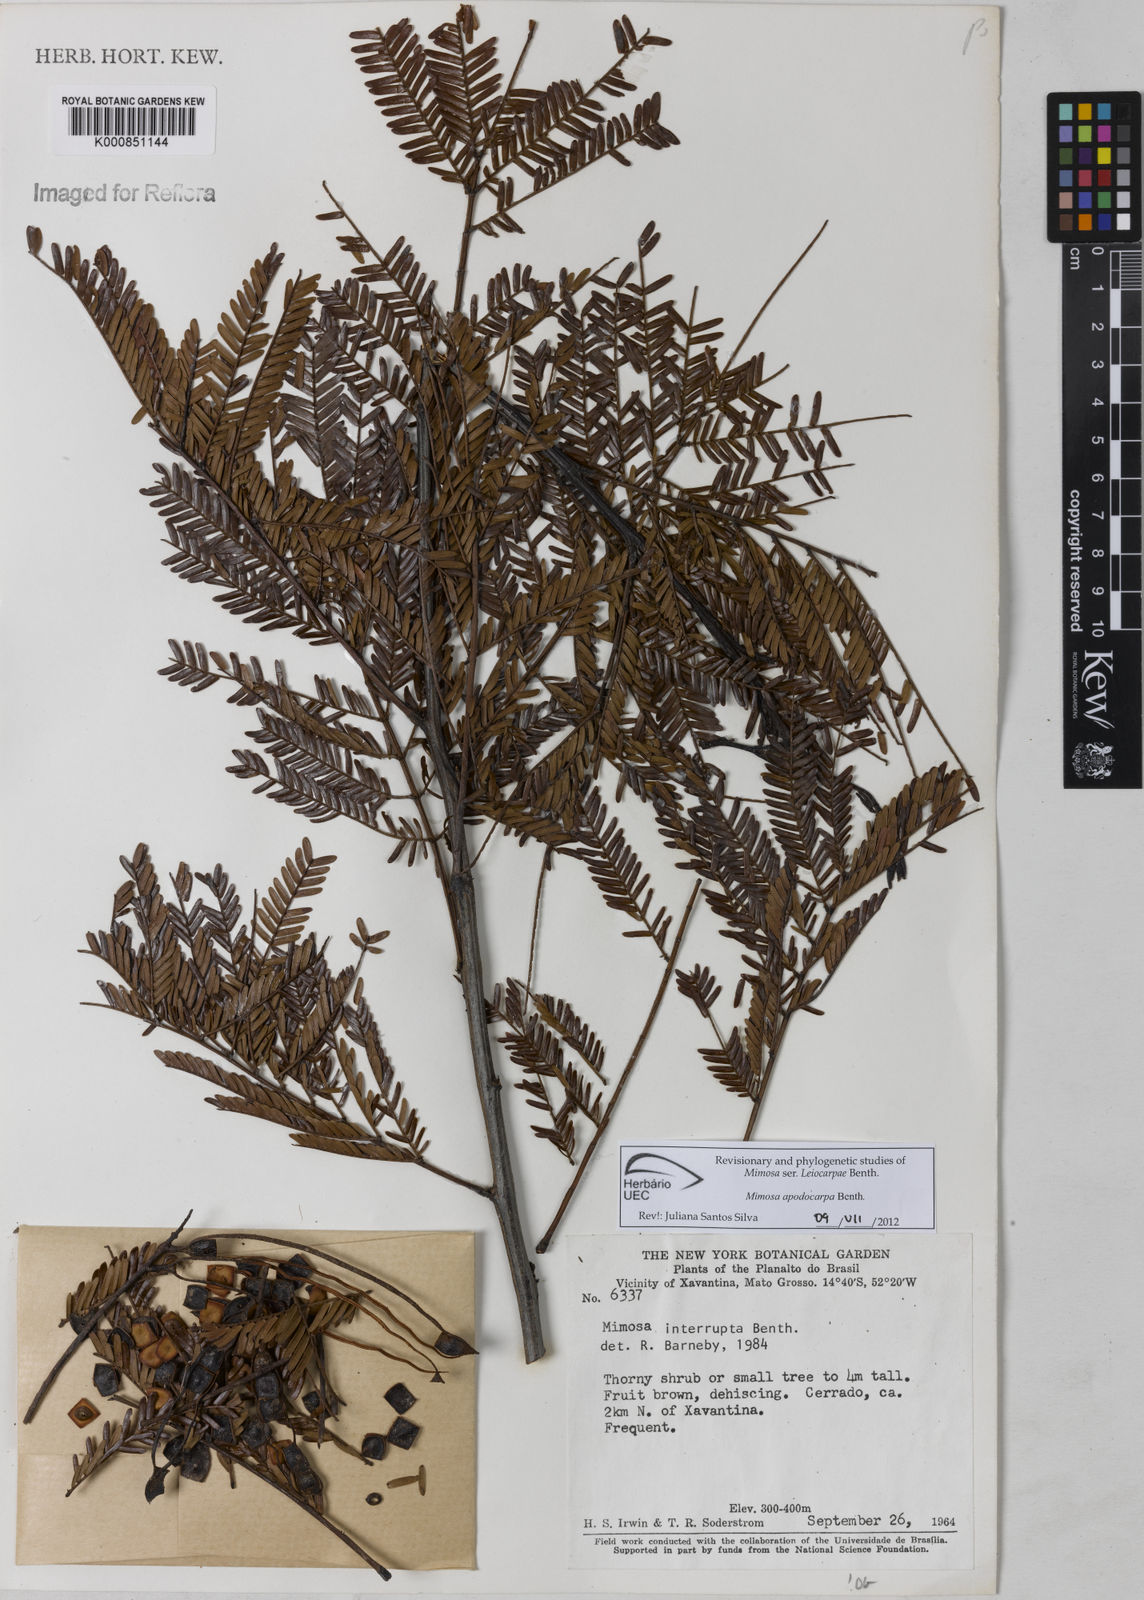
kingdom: Plantae
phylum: Tracheophyta
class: Magnoliopsida
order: Fabales
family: Fabaceae
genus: Mimosa
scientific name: Mimosa interrupta
